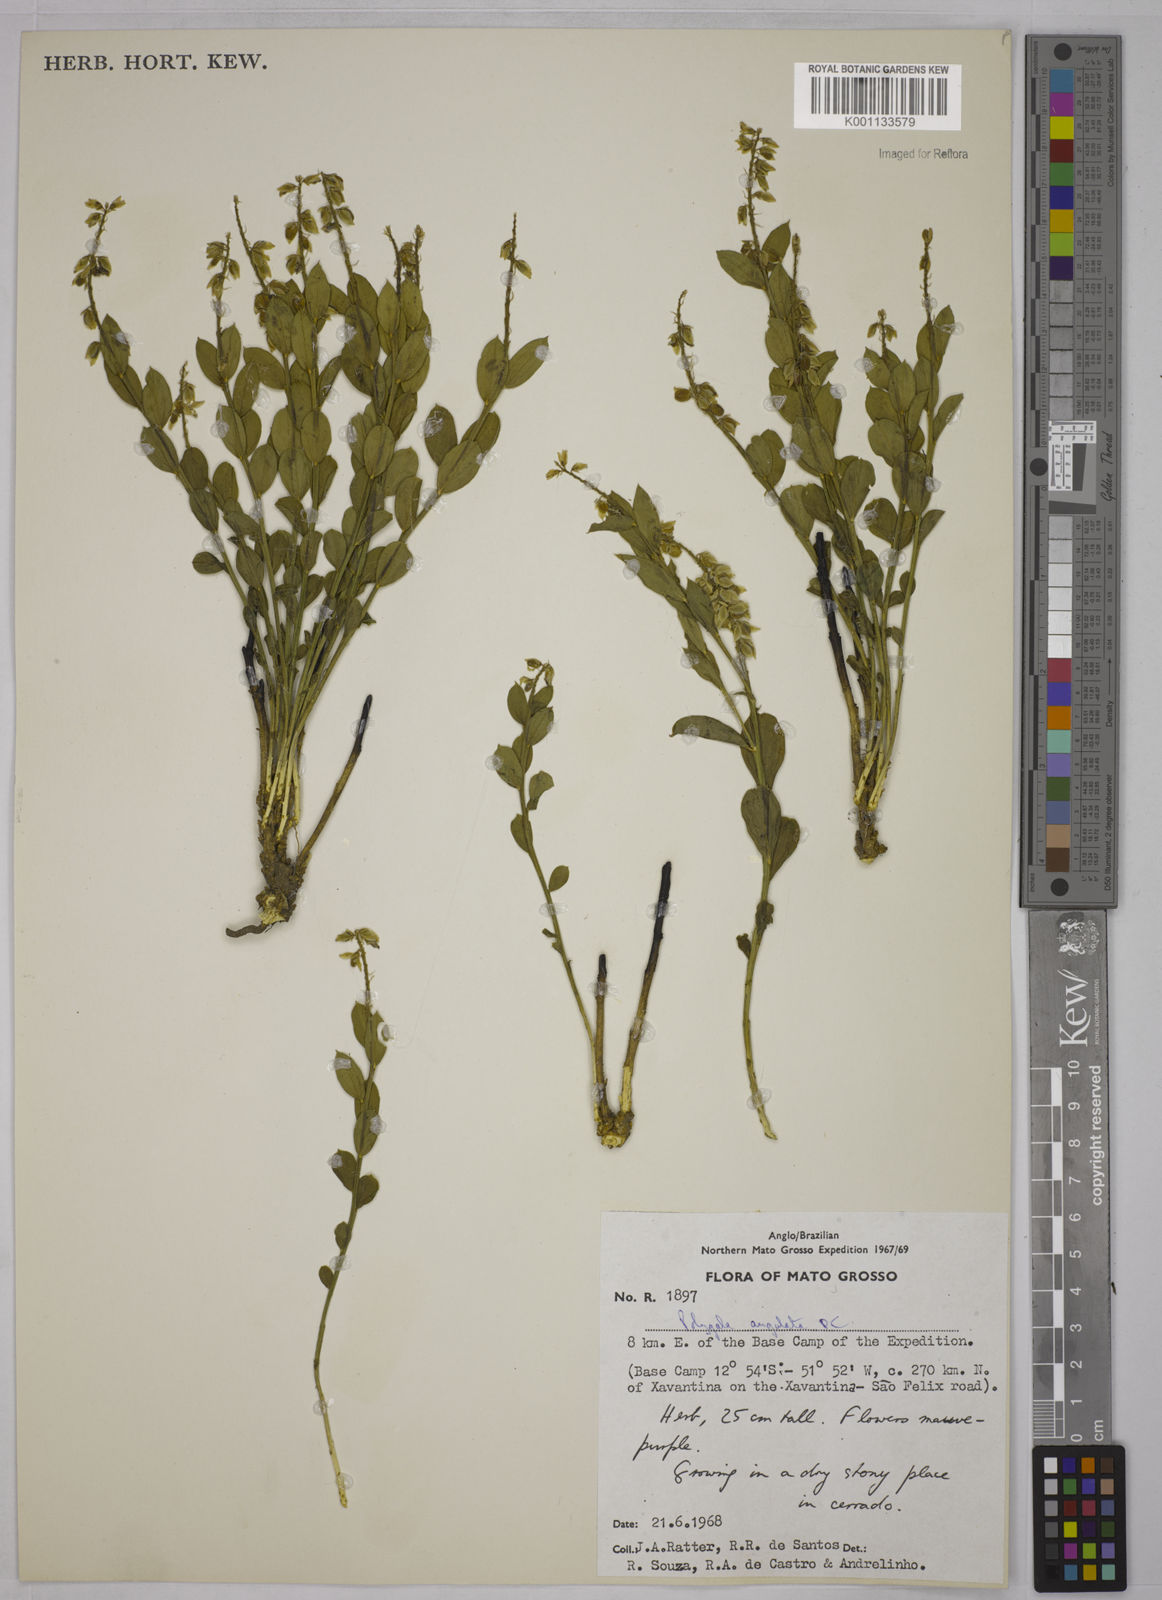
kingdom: Plantae
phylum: Tracheophyta
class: Magnoliopsida
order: Fabales
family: Polygalaceae
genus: Polygala
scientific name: Polygala poaya
